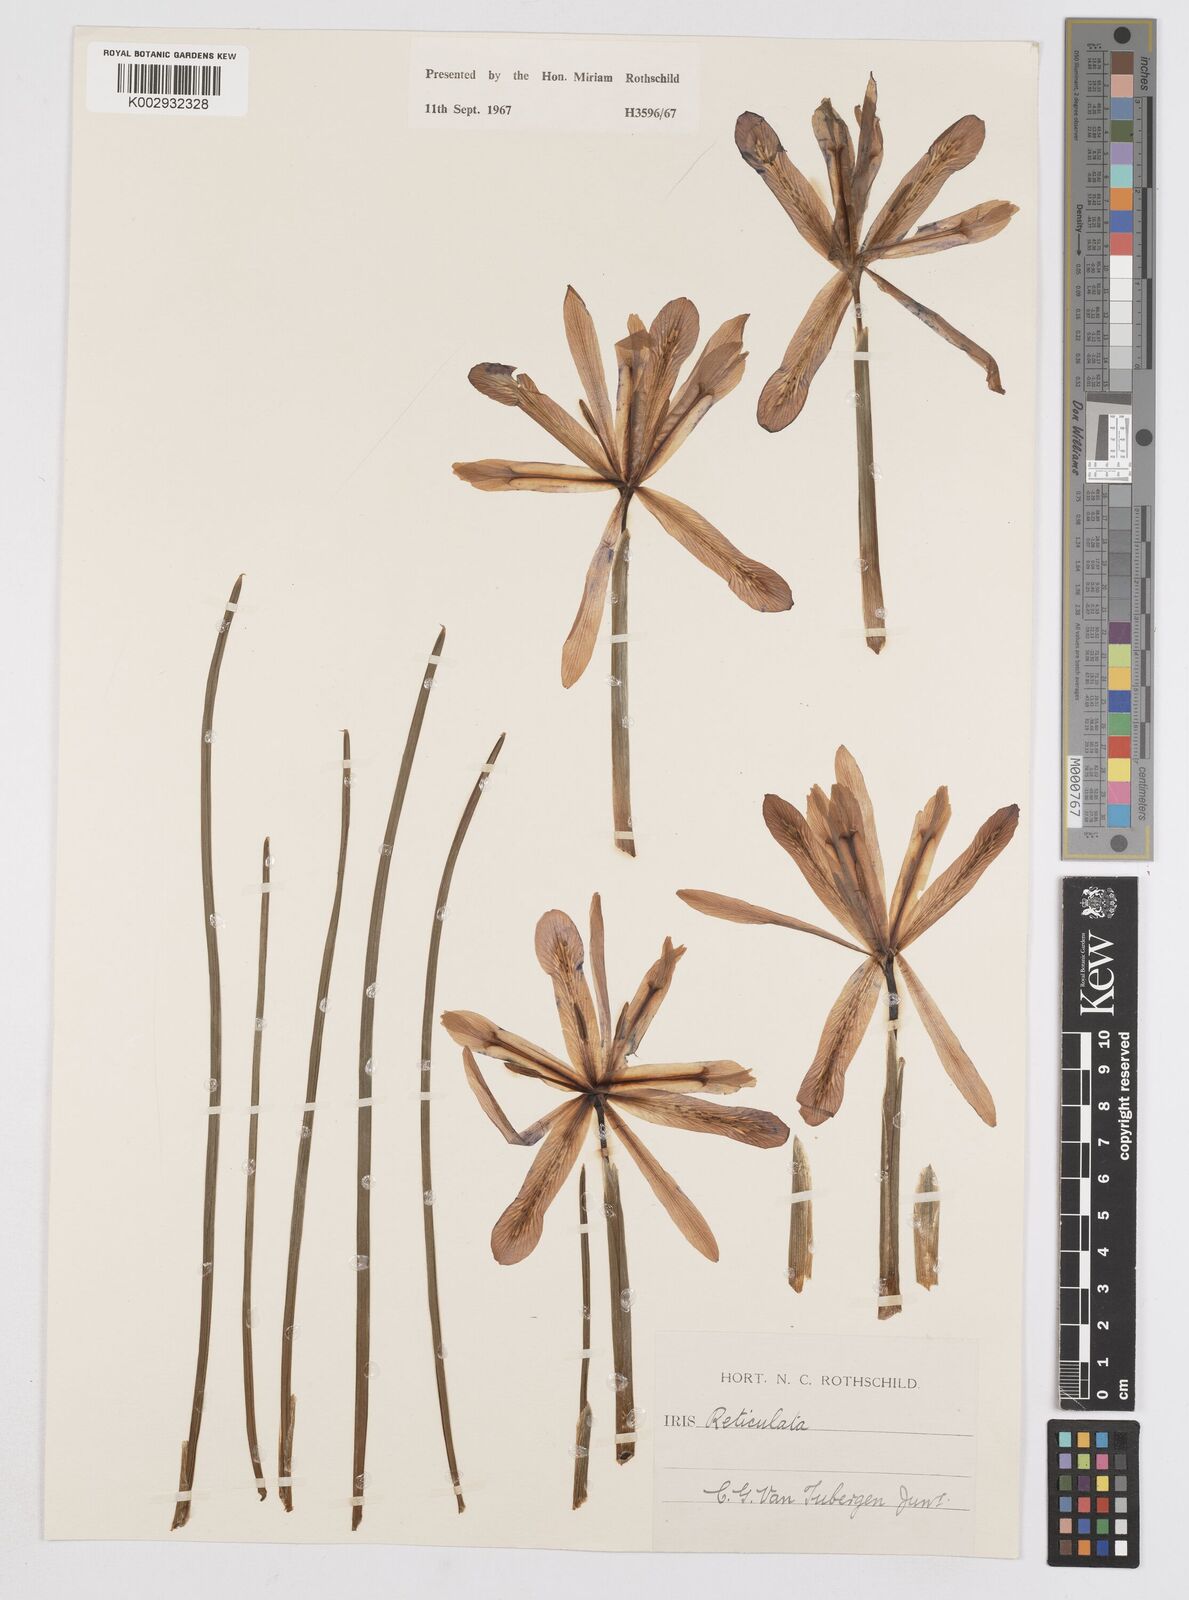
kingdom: Plantae
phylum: Tracheophyta
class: Liliopsida
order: Asparagales
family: Iridaceae
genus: Iris
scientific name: Iris reticulata
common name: Netted iris
